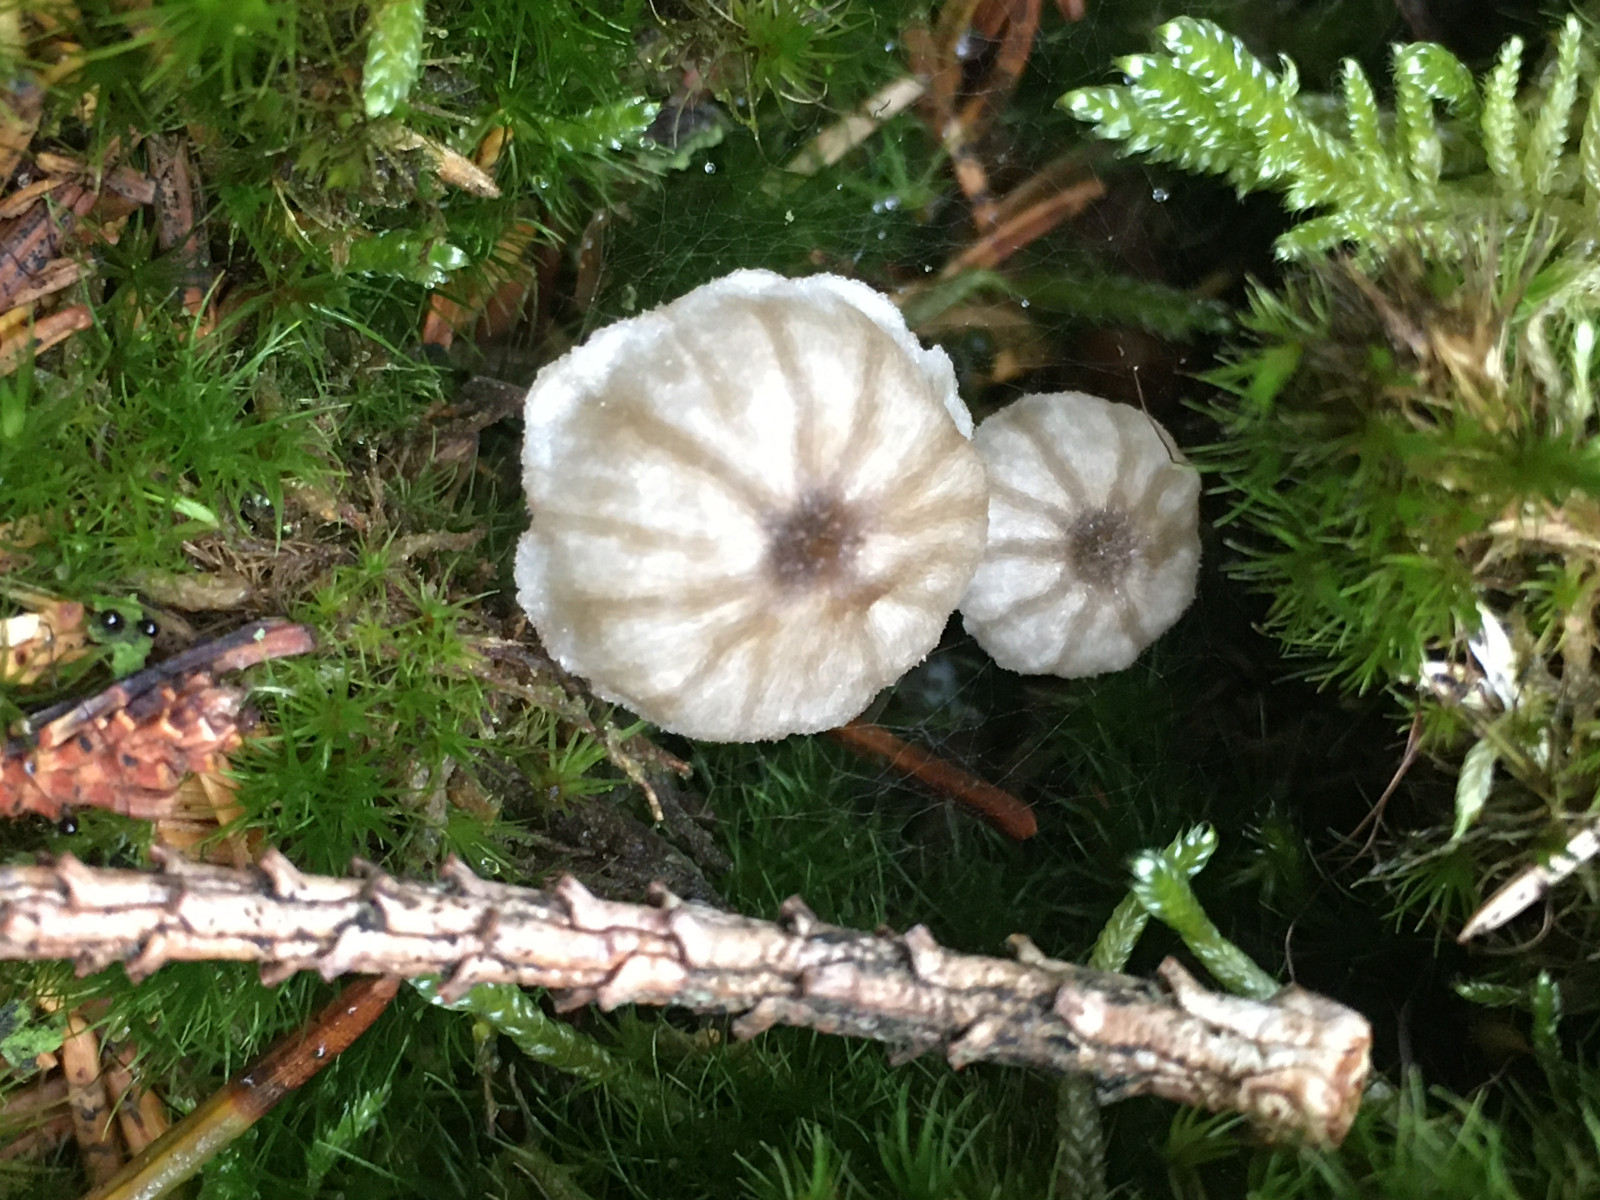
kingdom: Fungi
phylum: Basidiomycota
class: Agaricomycetes
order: Agaricales
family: Entolomataceae
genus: Entoloma
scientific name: Entoloma rhodocylix
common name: fjernbladet rødblad
